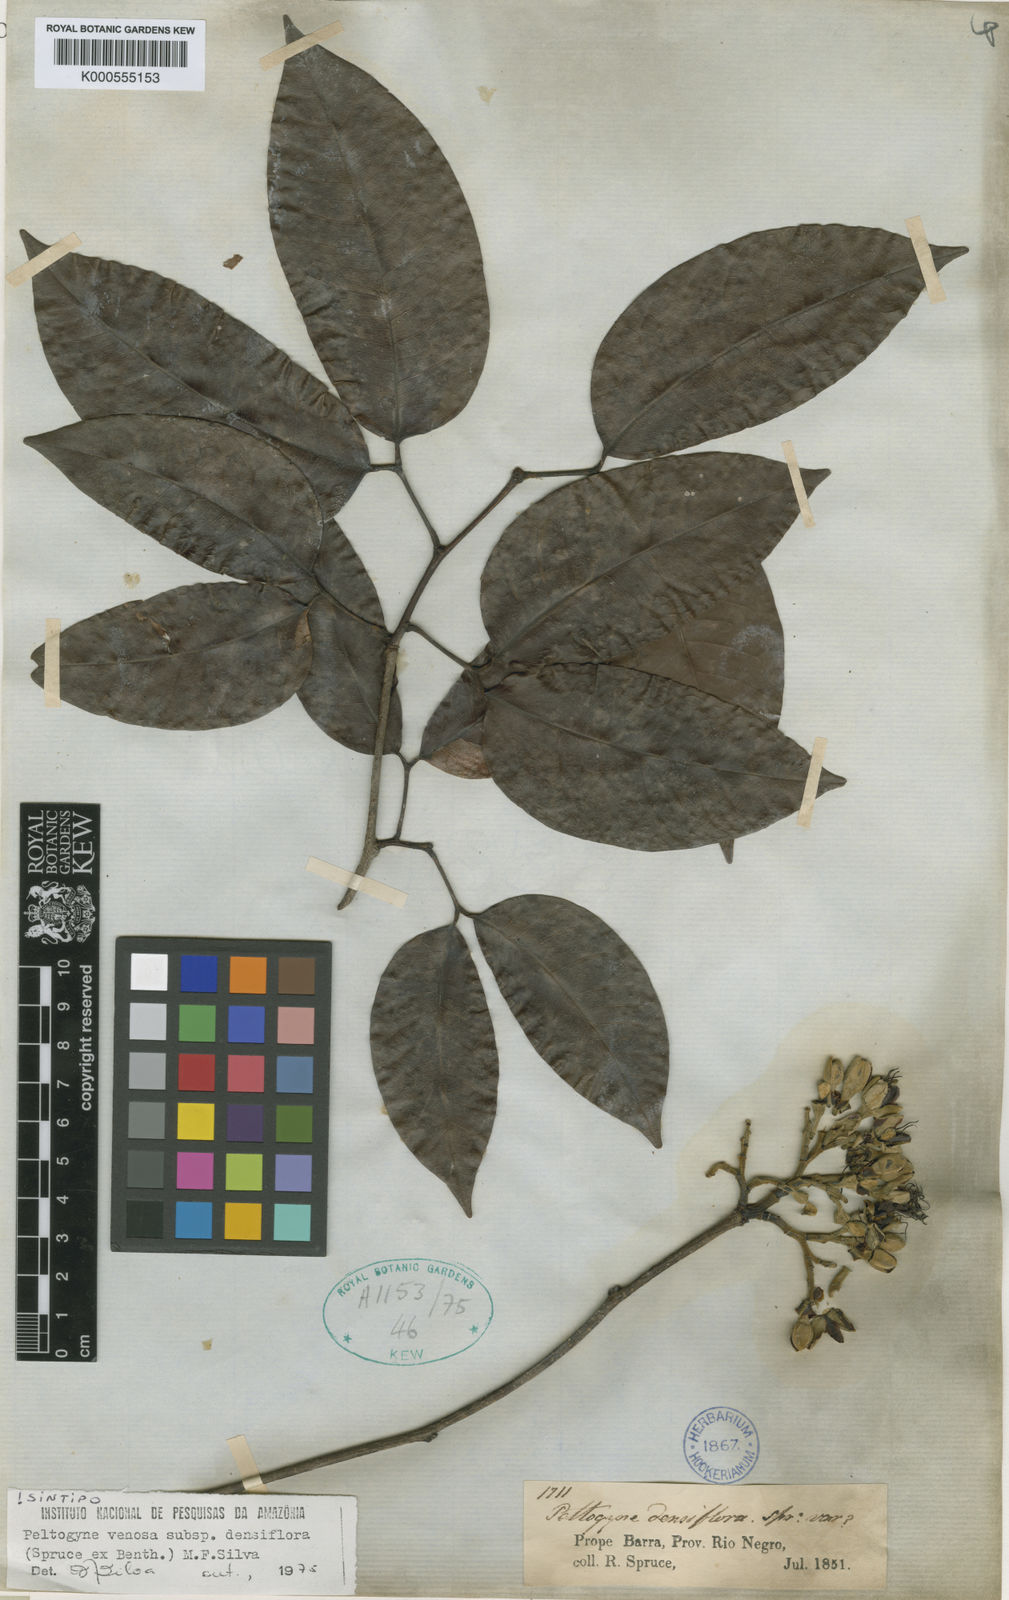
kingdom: Plantae
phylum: Tracheophyta
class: Magnoliopsida
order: Fabales
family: Fabaceae
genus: Peltogyne
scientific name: Peltogyne venosa
